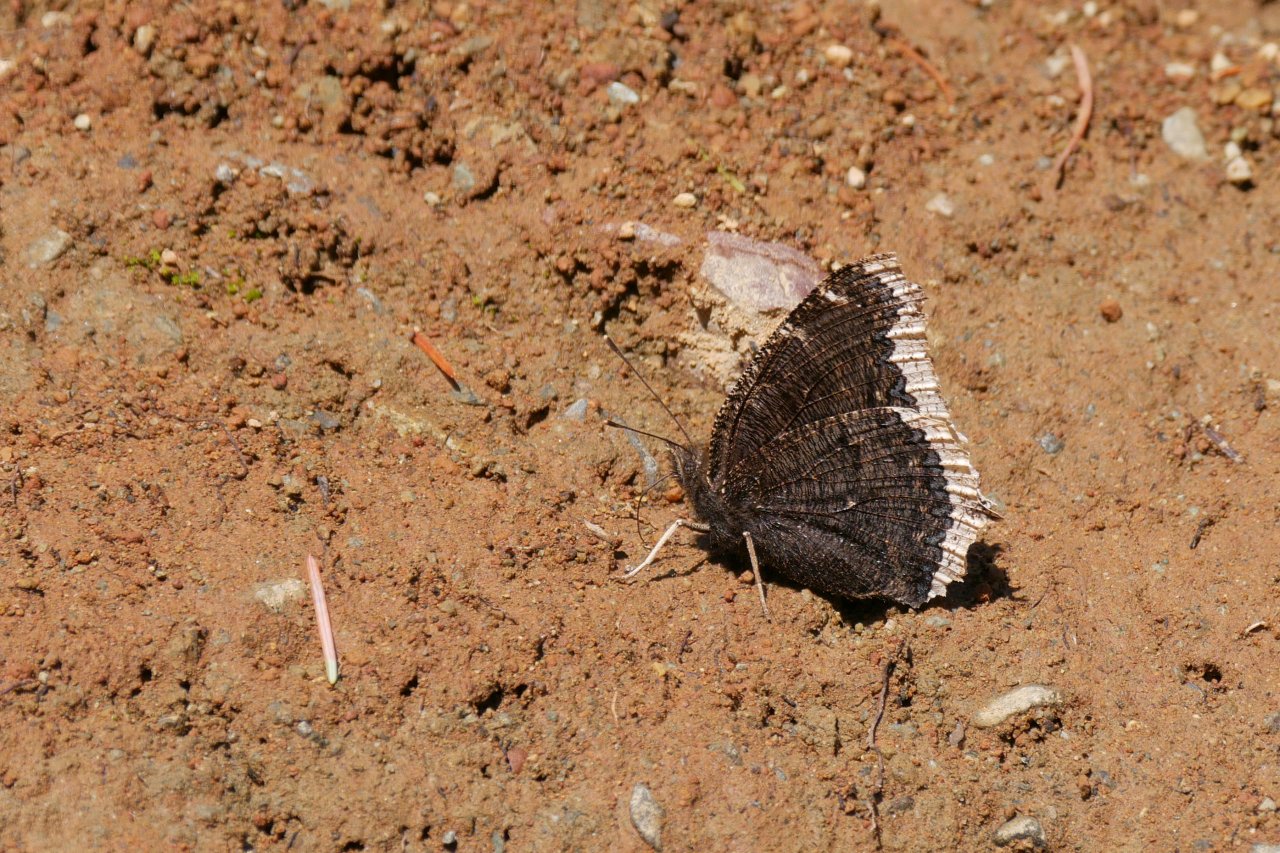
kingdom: Animalia
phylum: Arthropoda
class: Insecta
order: Lepidoptera
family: Nymphalidae
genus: Nymphalis
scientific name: Nymphalis antiopa
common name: Mourning Cloak
